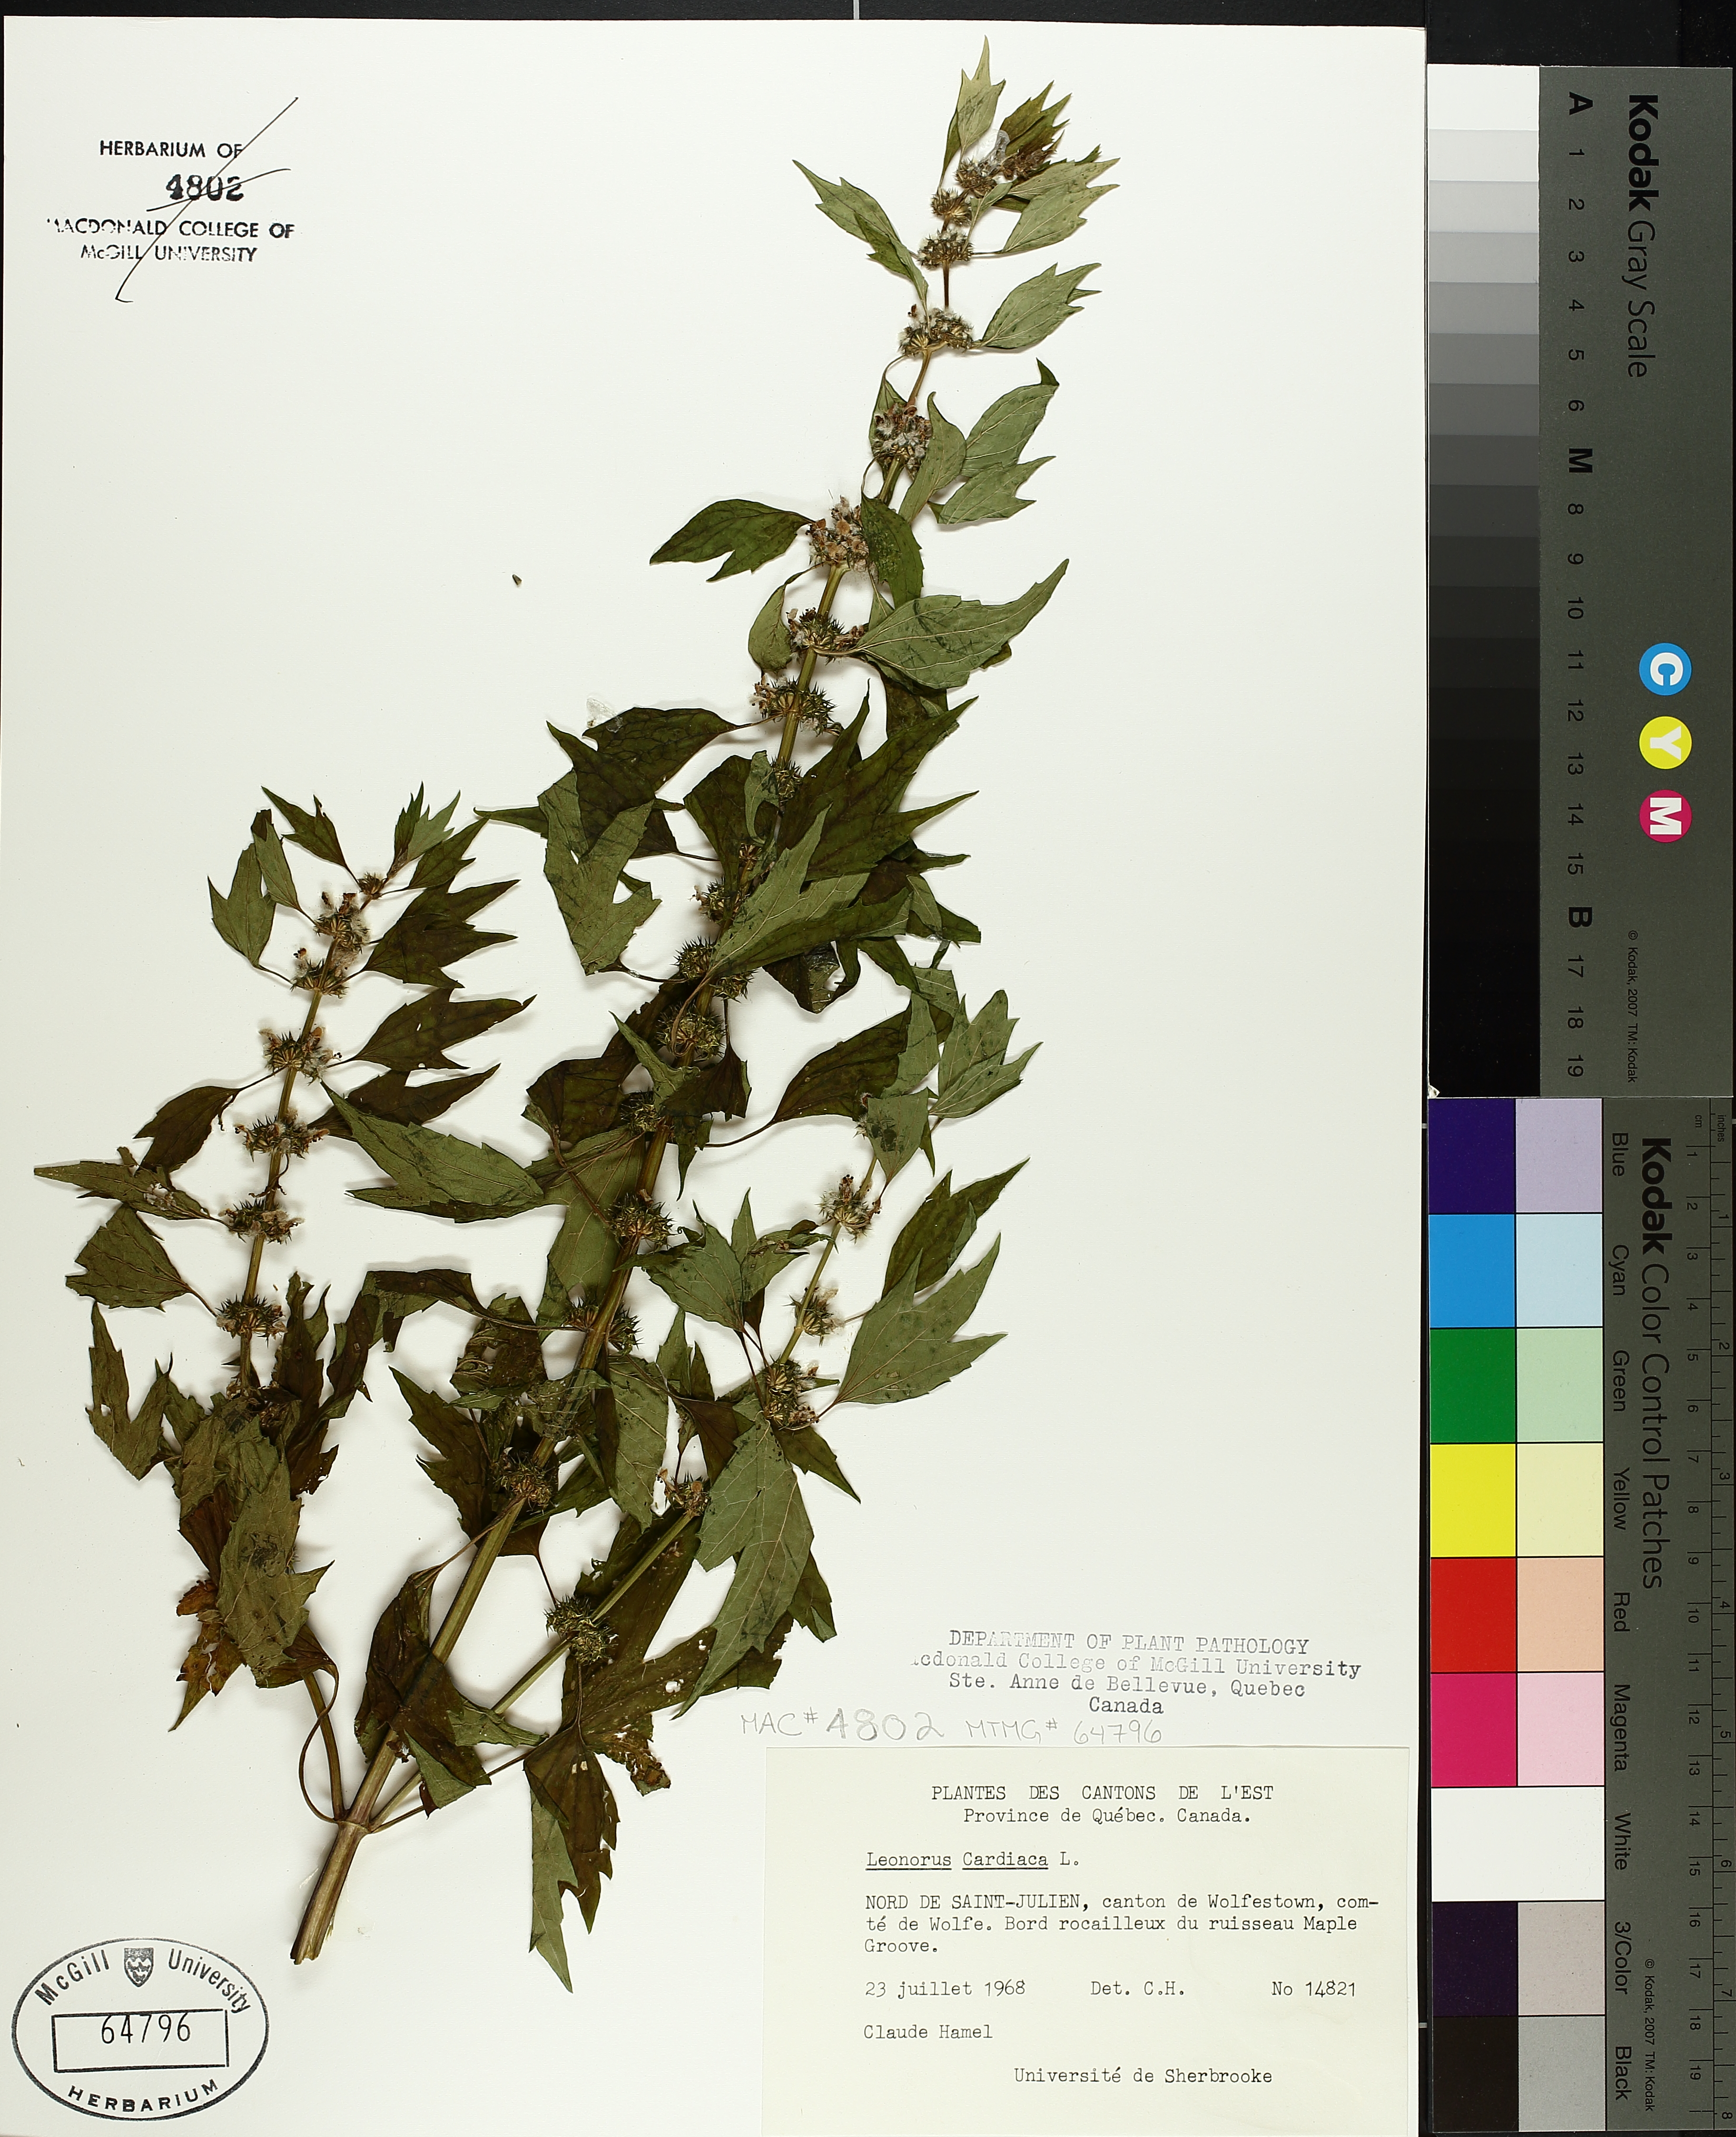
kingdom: Plantae
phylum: Tracheophyta
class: Magnoliopsida
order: Lamiales
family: Lamiaceae
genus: Leonurus
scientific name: Leonurus cardiaca
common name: Motherwort
